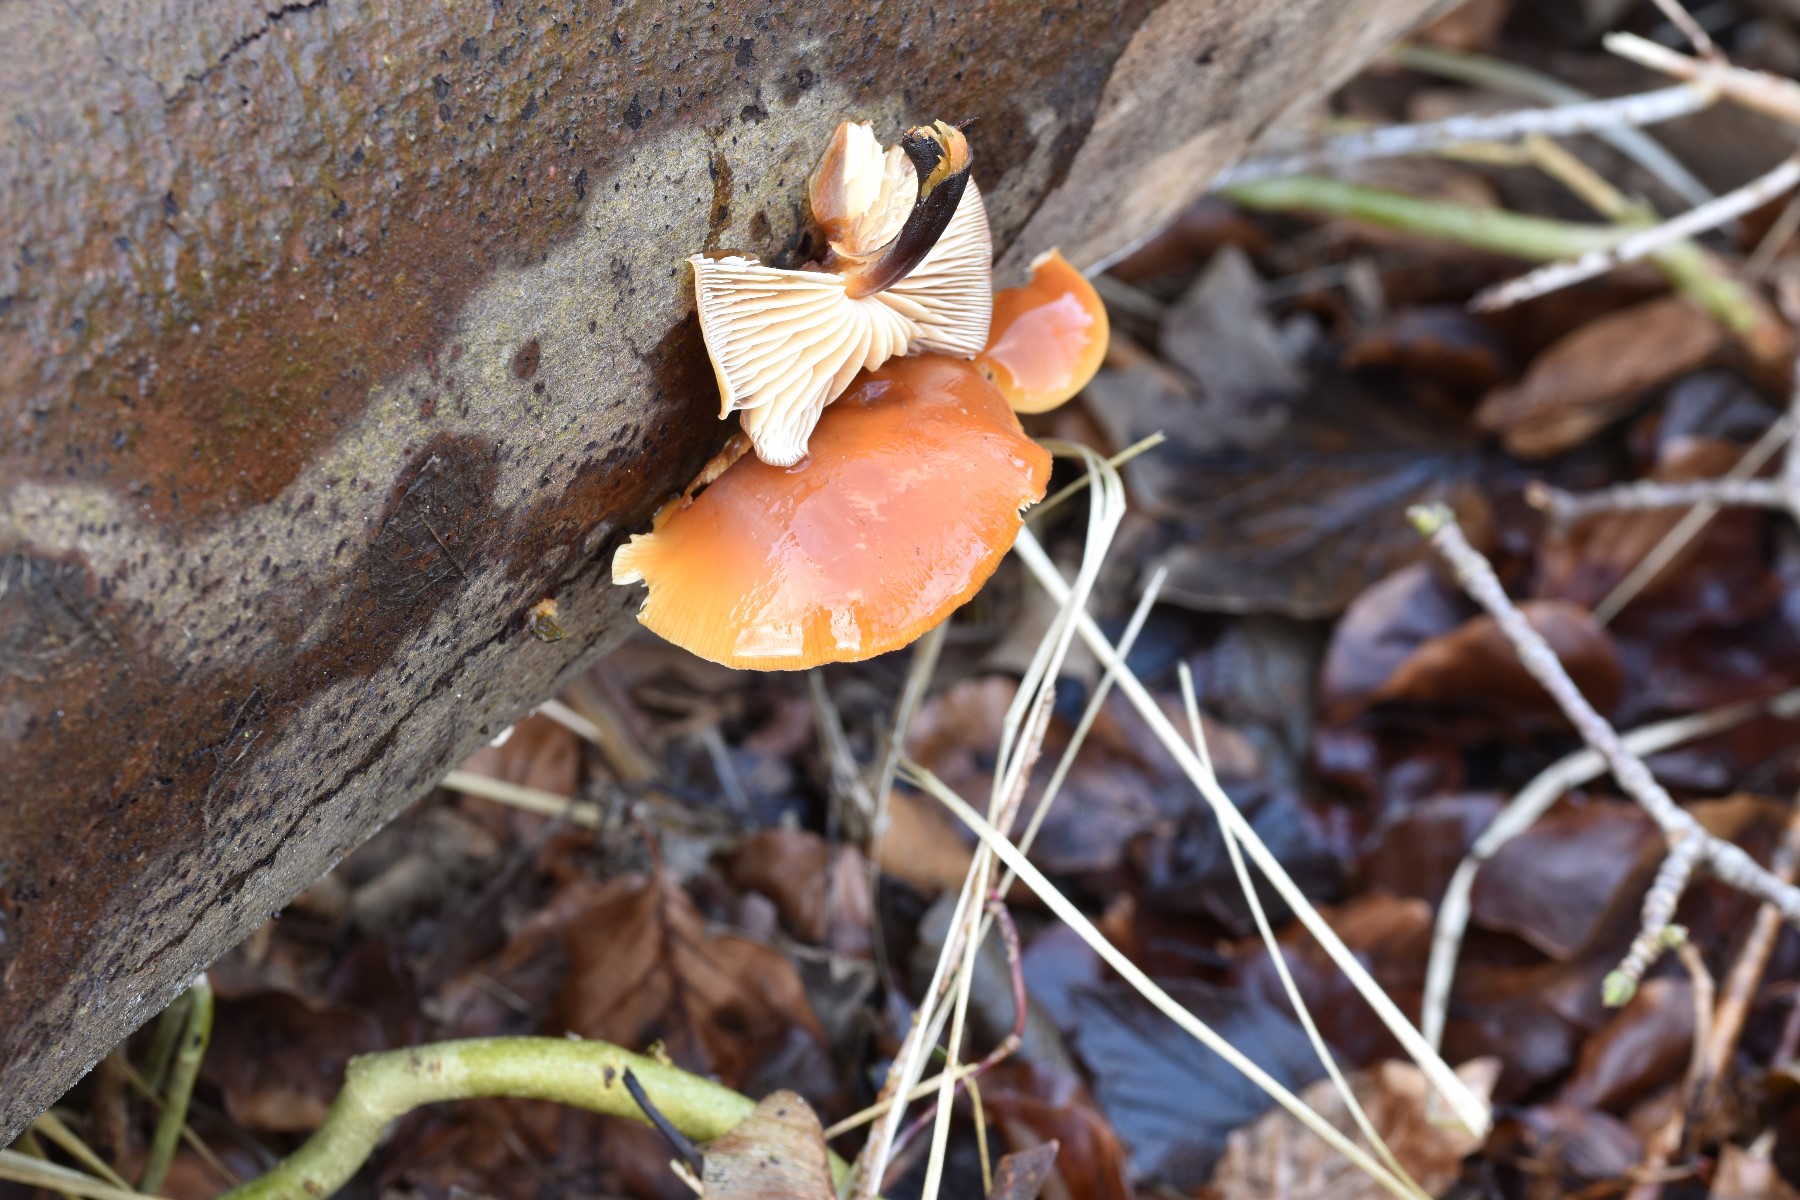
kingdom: Fungi
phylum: Basidiomycota
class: Agaricomycetes
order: Agaricales
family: Physalacriaceae
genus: Flammulina
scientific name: Flammulina velutipes
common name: gul fløjlsfod
